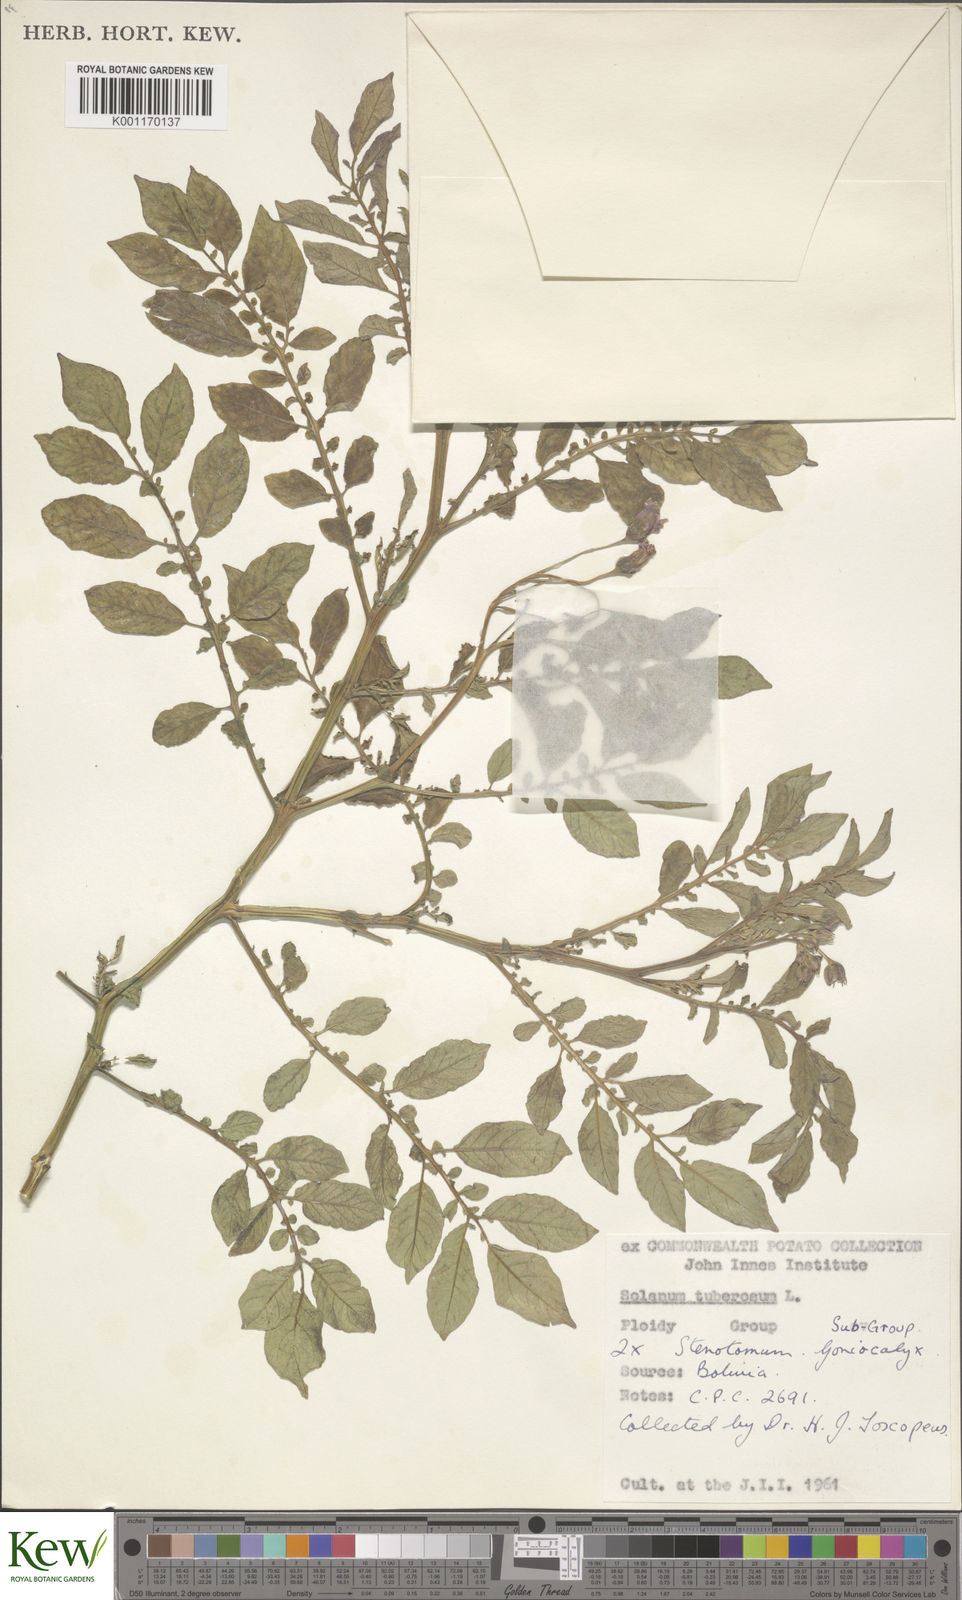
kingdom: Plantae
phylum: Tracheophyta
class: Magnoliopsida
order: Solanales
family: Solanaceae
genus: Solanum
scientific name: Solanum tuberosum
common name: Potato
